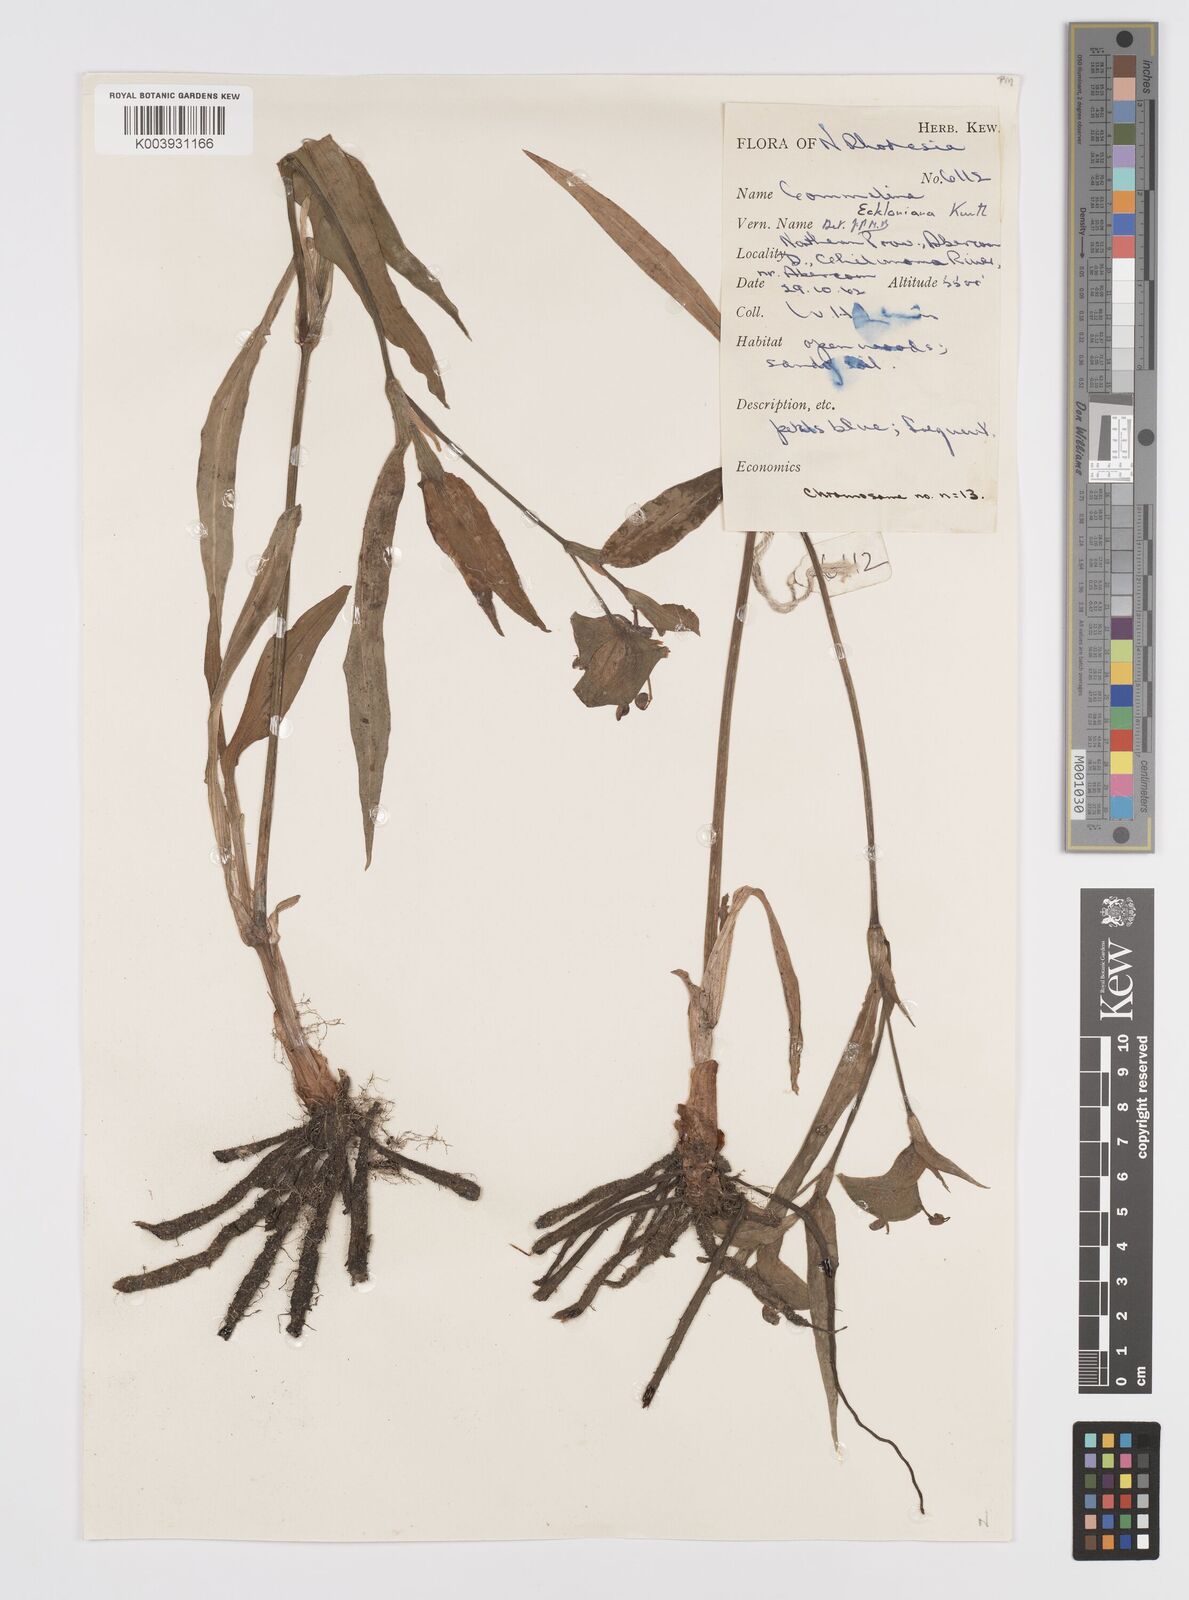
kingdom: Plantae
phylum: Tracheophyta
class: Liliopsida
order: Commelinales
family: Commelinaceae
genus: Commelina
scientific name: Commelina eckloniana
